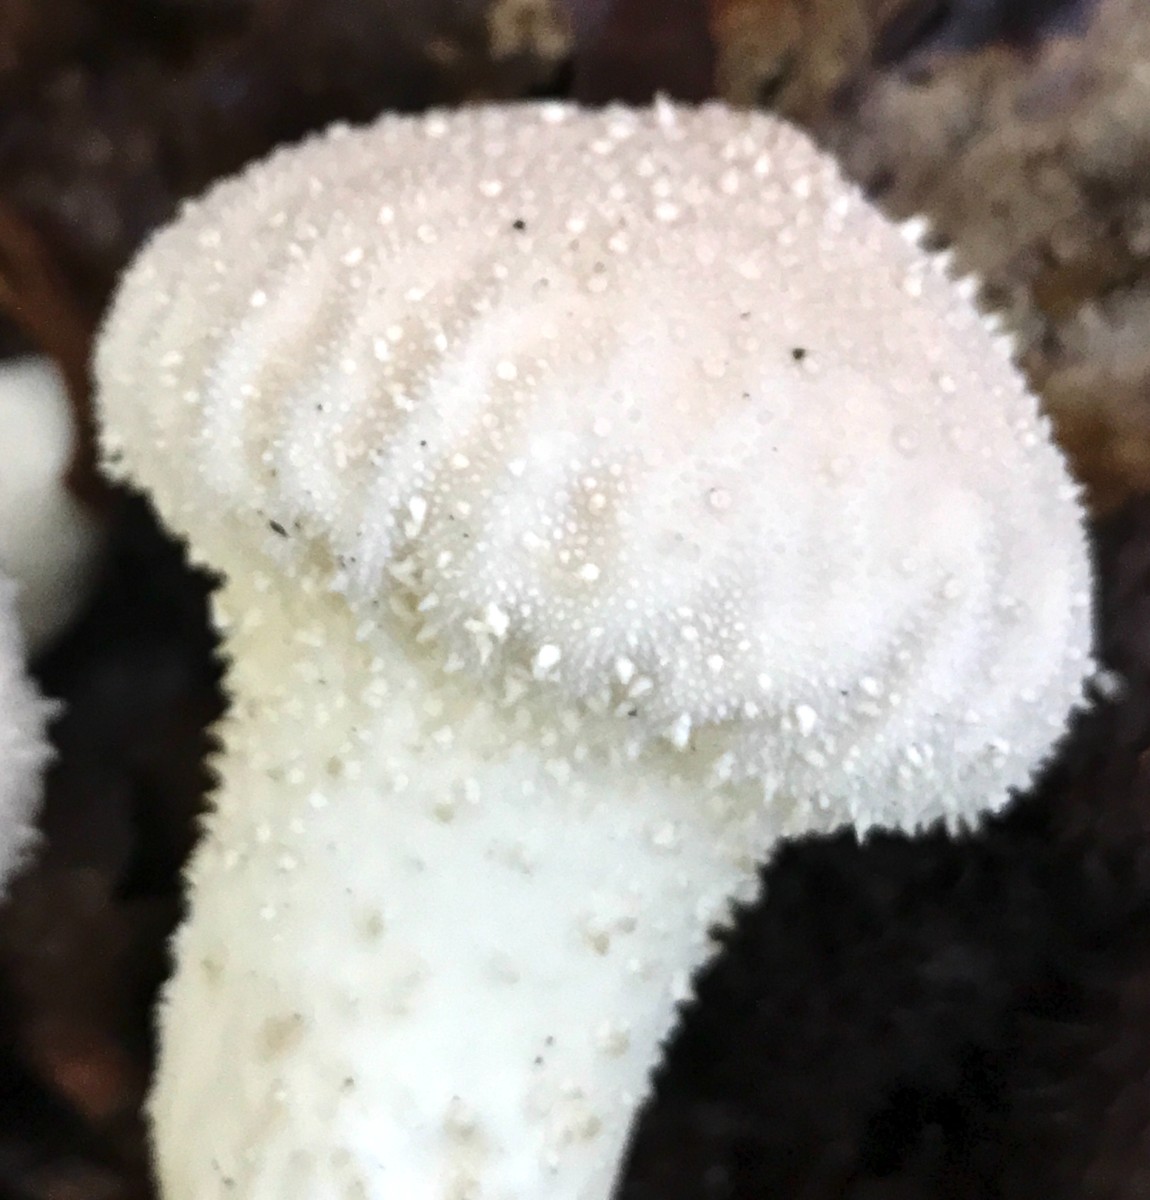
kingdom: Fungi
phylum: Basidiomycota
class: Agaricomycetes
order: Agaricales
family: Lycoperdaceae
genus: Lycoperdon
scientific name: Lycoperdon perlatum
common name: krystal-støvbold
